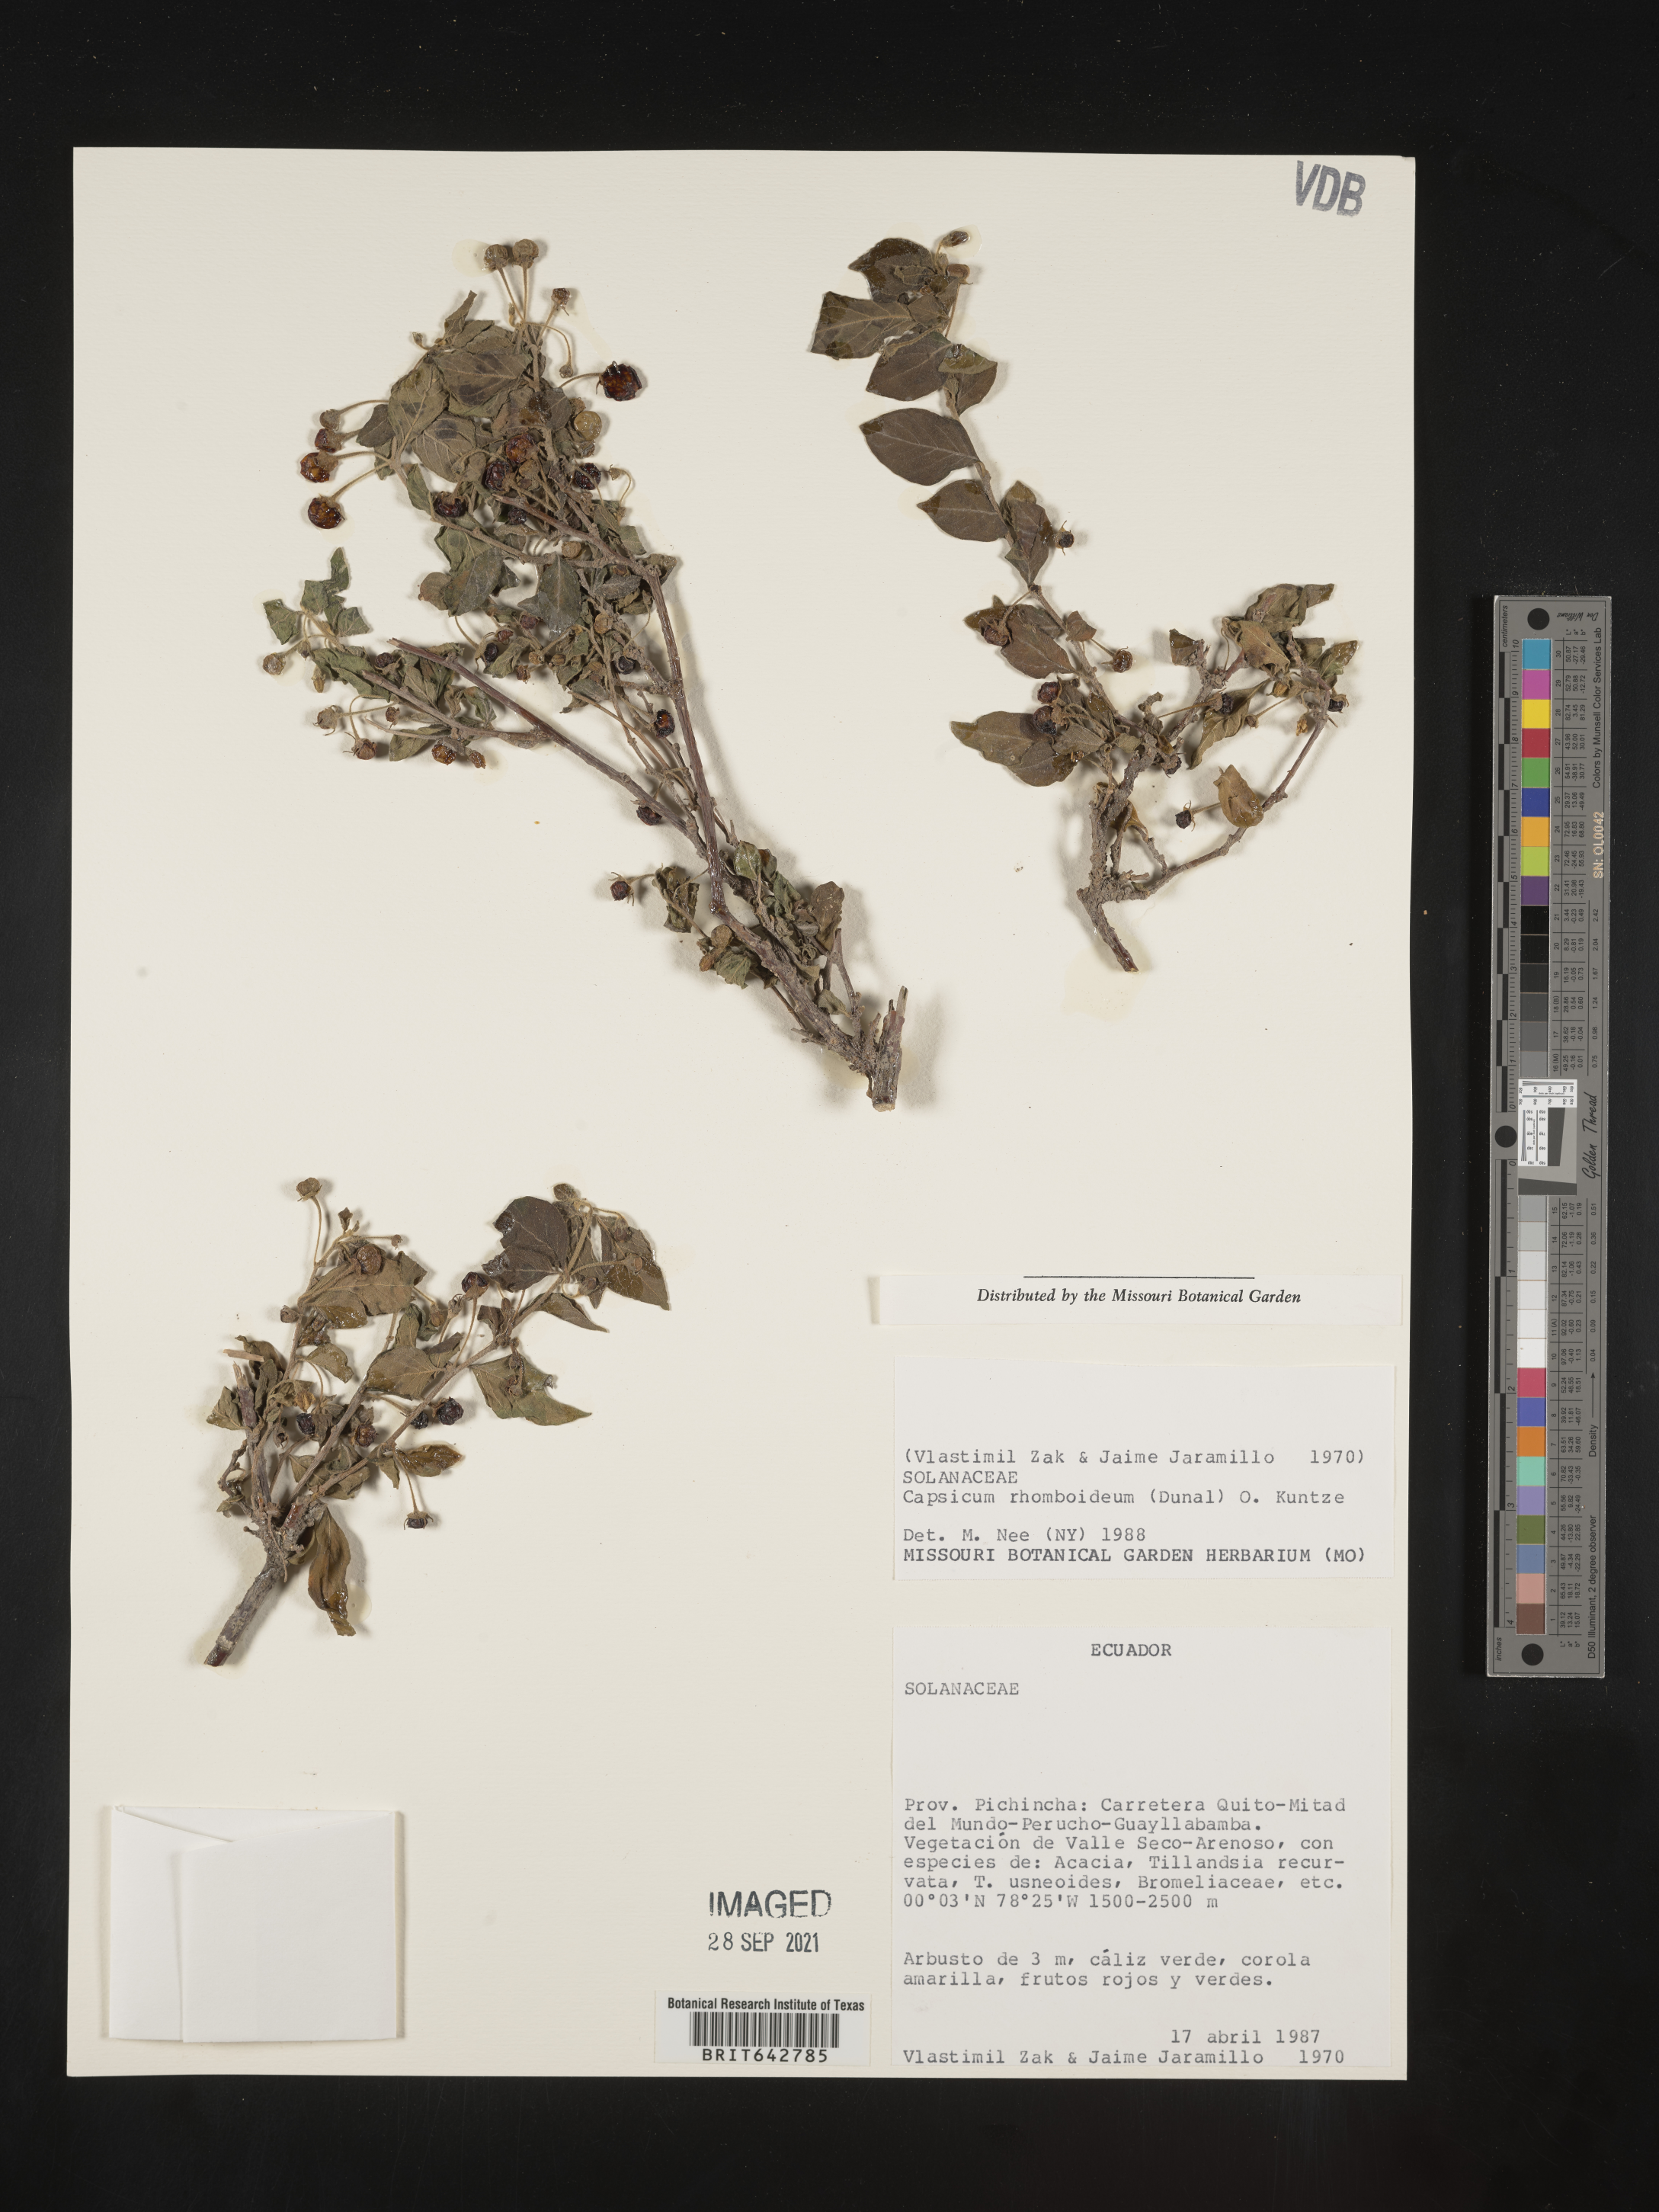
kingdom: Plantae
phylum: Tracheophyta
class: Magnoliopsida
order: Solanales
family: Solanaceae
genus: Capsicum
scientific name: Capsicum
